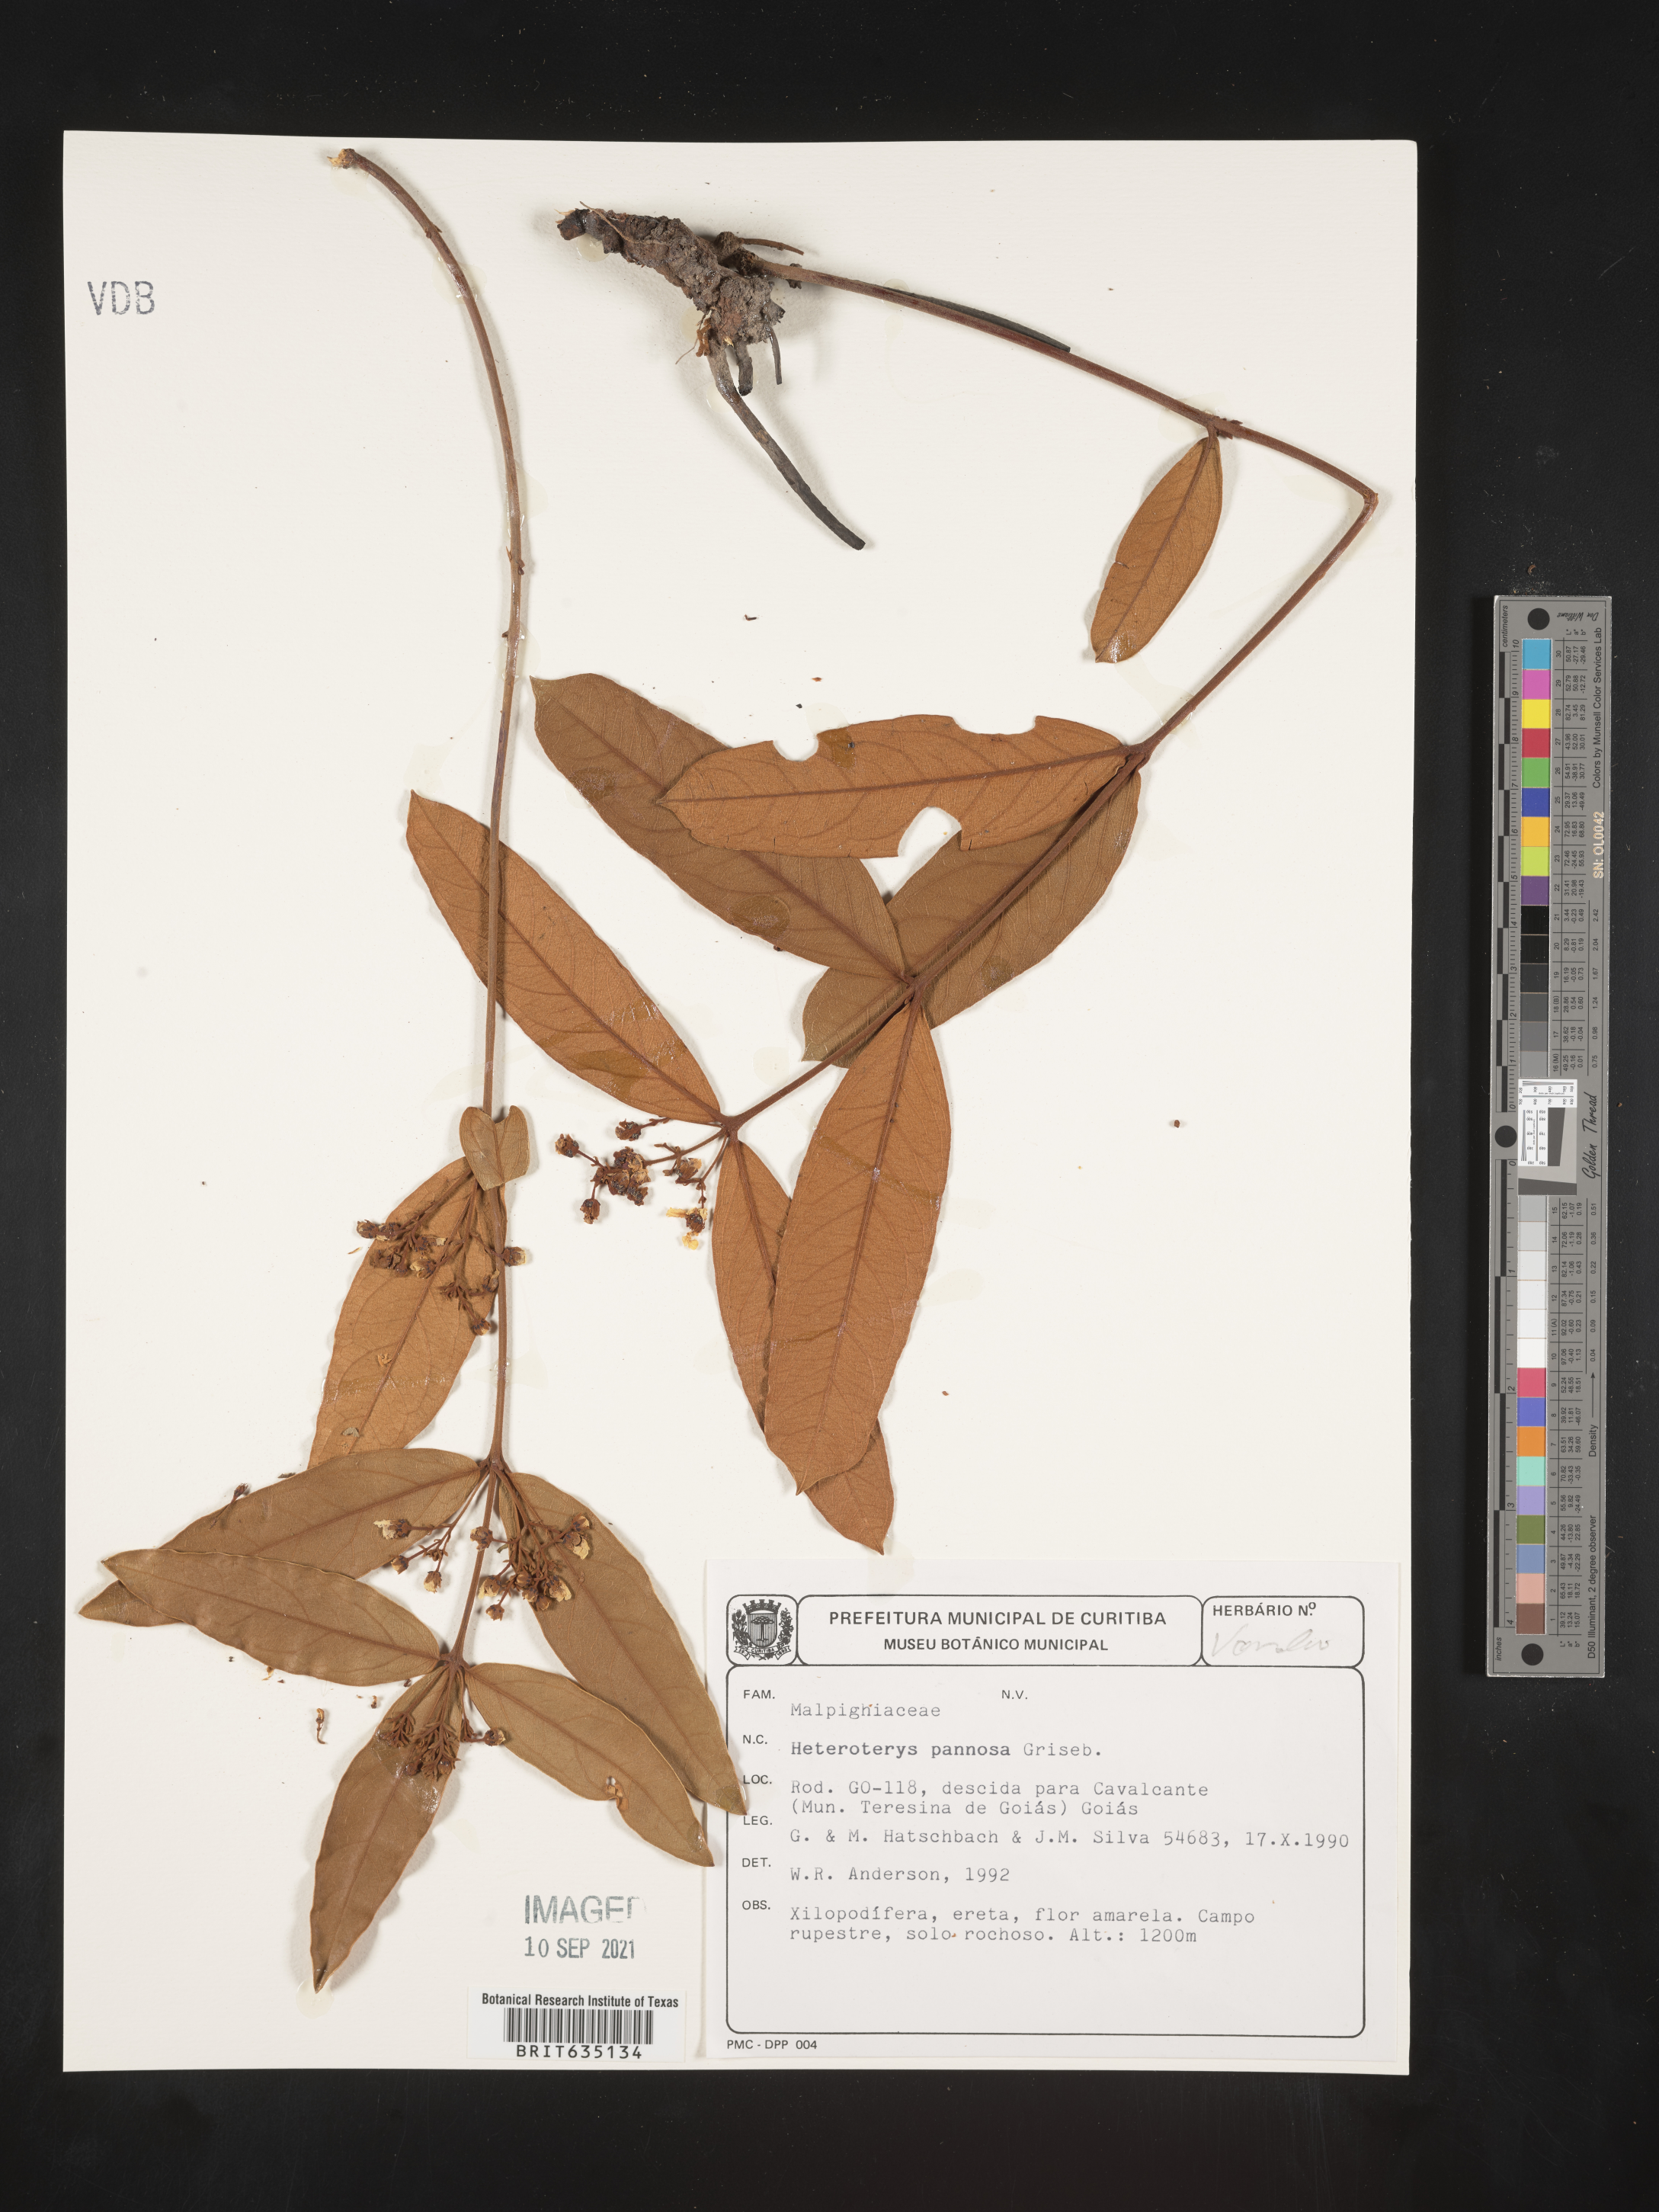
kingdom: Plantae
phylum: Tracheophyta
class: Polypodiopsida
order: Polypodiales
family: Pteridaceae
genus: Heteropteris
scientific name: Heteropteris
